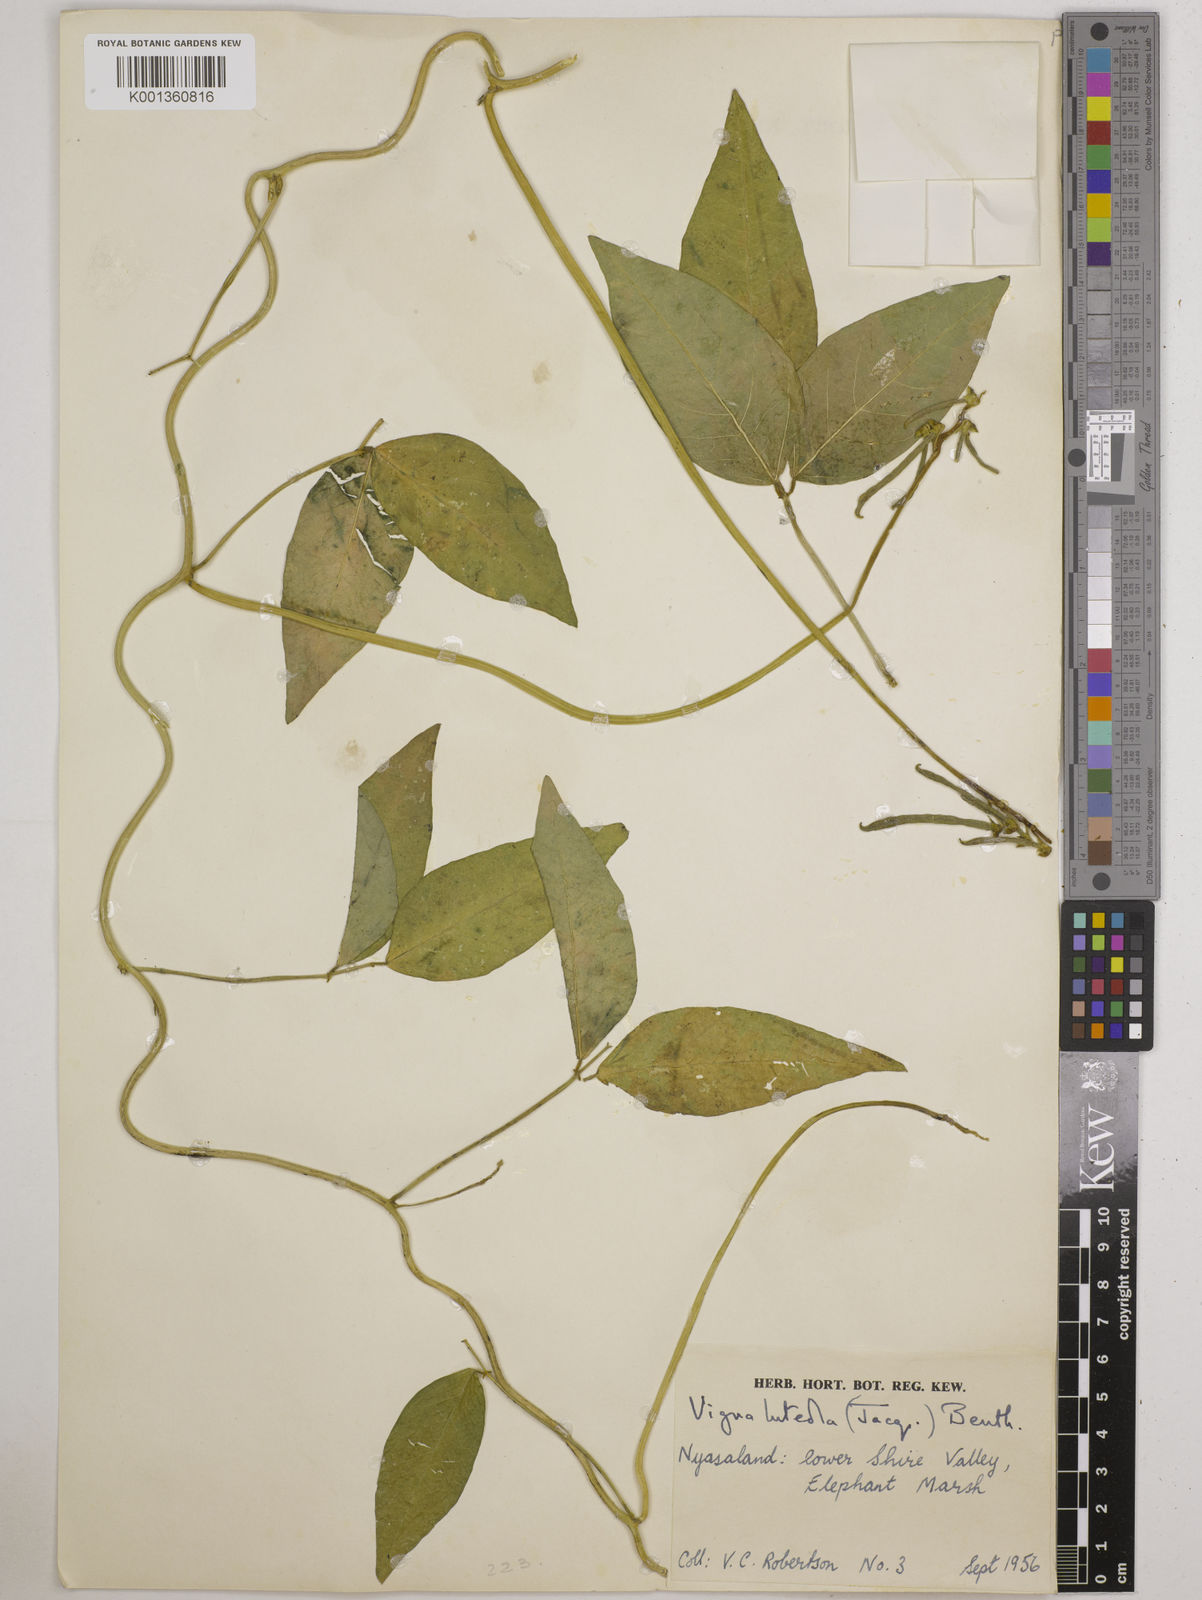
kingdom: Plantae
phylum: Tracheophyta
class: Magnoliopsida
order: Fabales
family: Fabaceae
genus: Vigna
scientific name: Vigna luteola
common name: Hairypod cowpea
